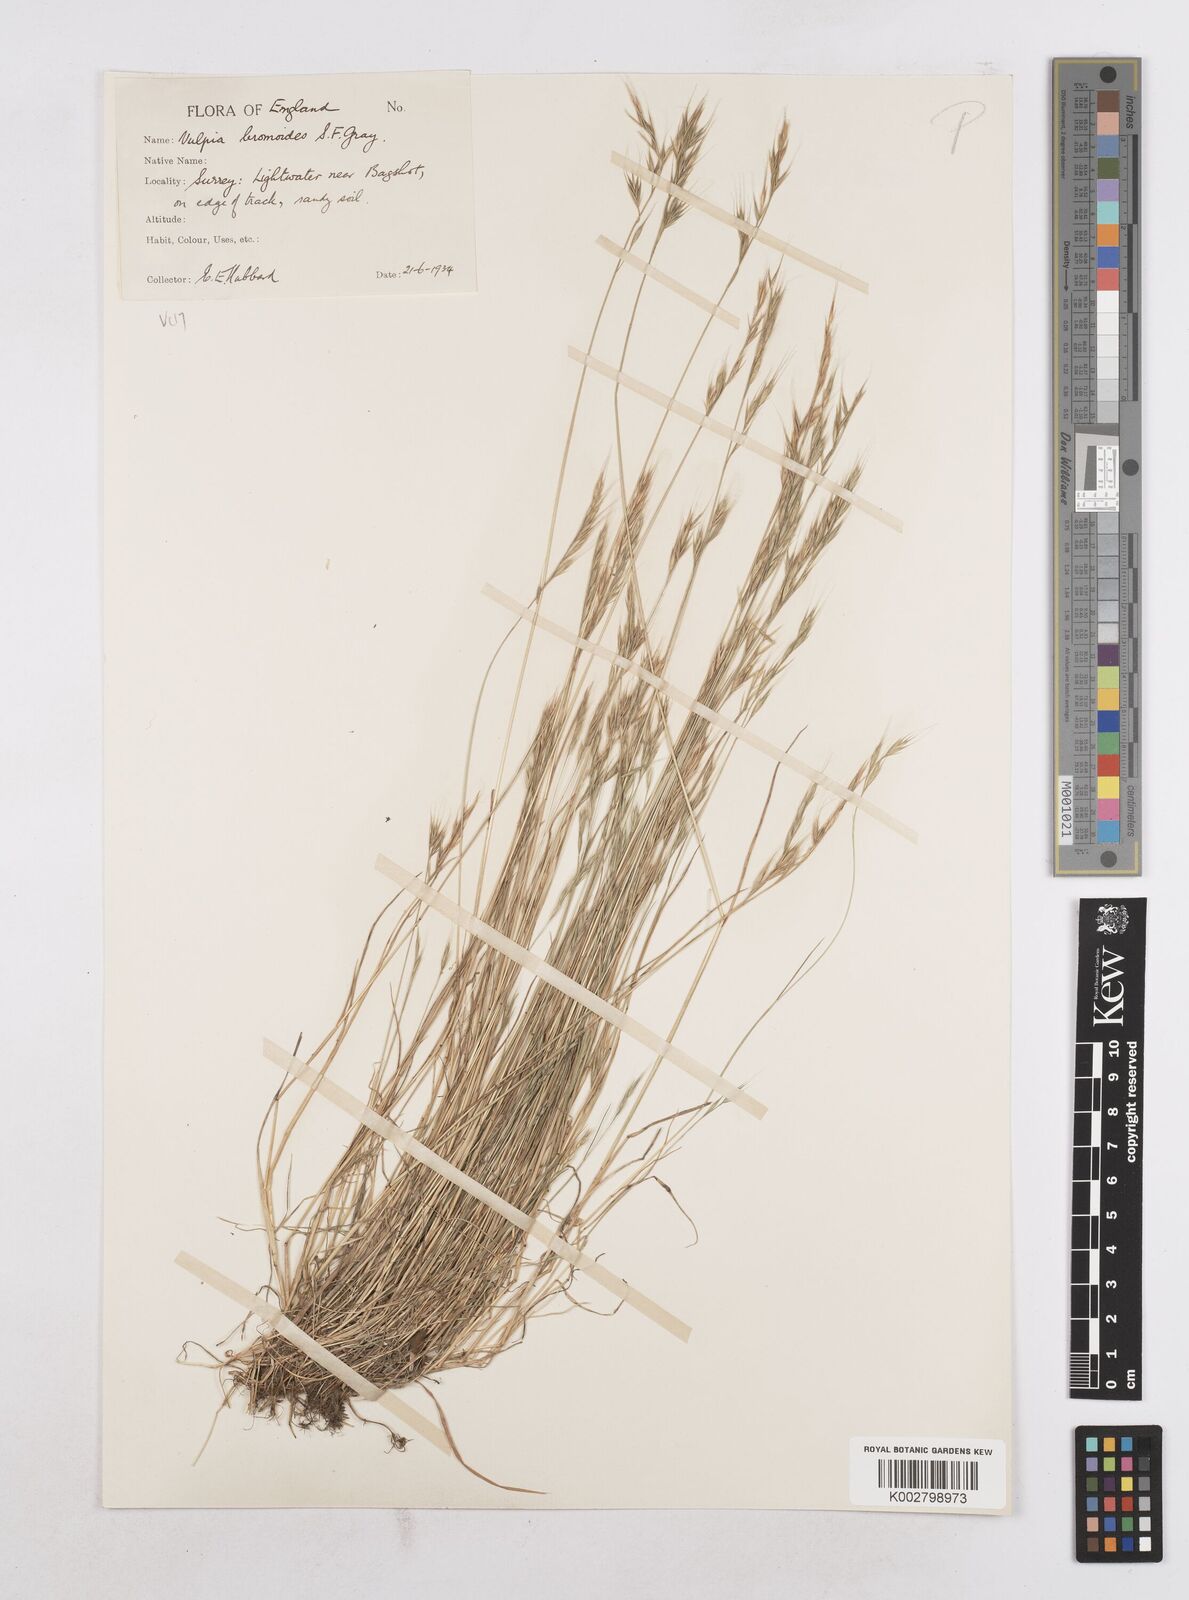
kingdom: Plantae
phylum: Tracheophyta
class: Liliopsida
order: Poales
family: Poaceae
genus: Festuca
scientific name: Festuca bromoides
